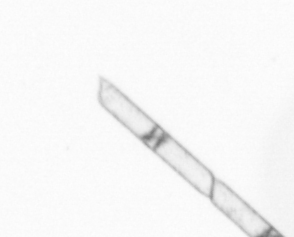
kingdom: Chromista
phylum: Ochrophyta
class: Bacillariophyceae
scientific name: Bacillariophyceae
